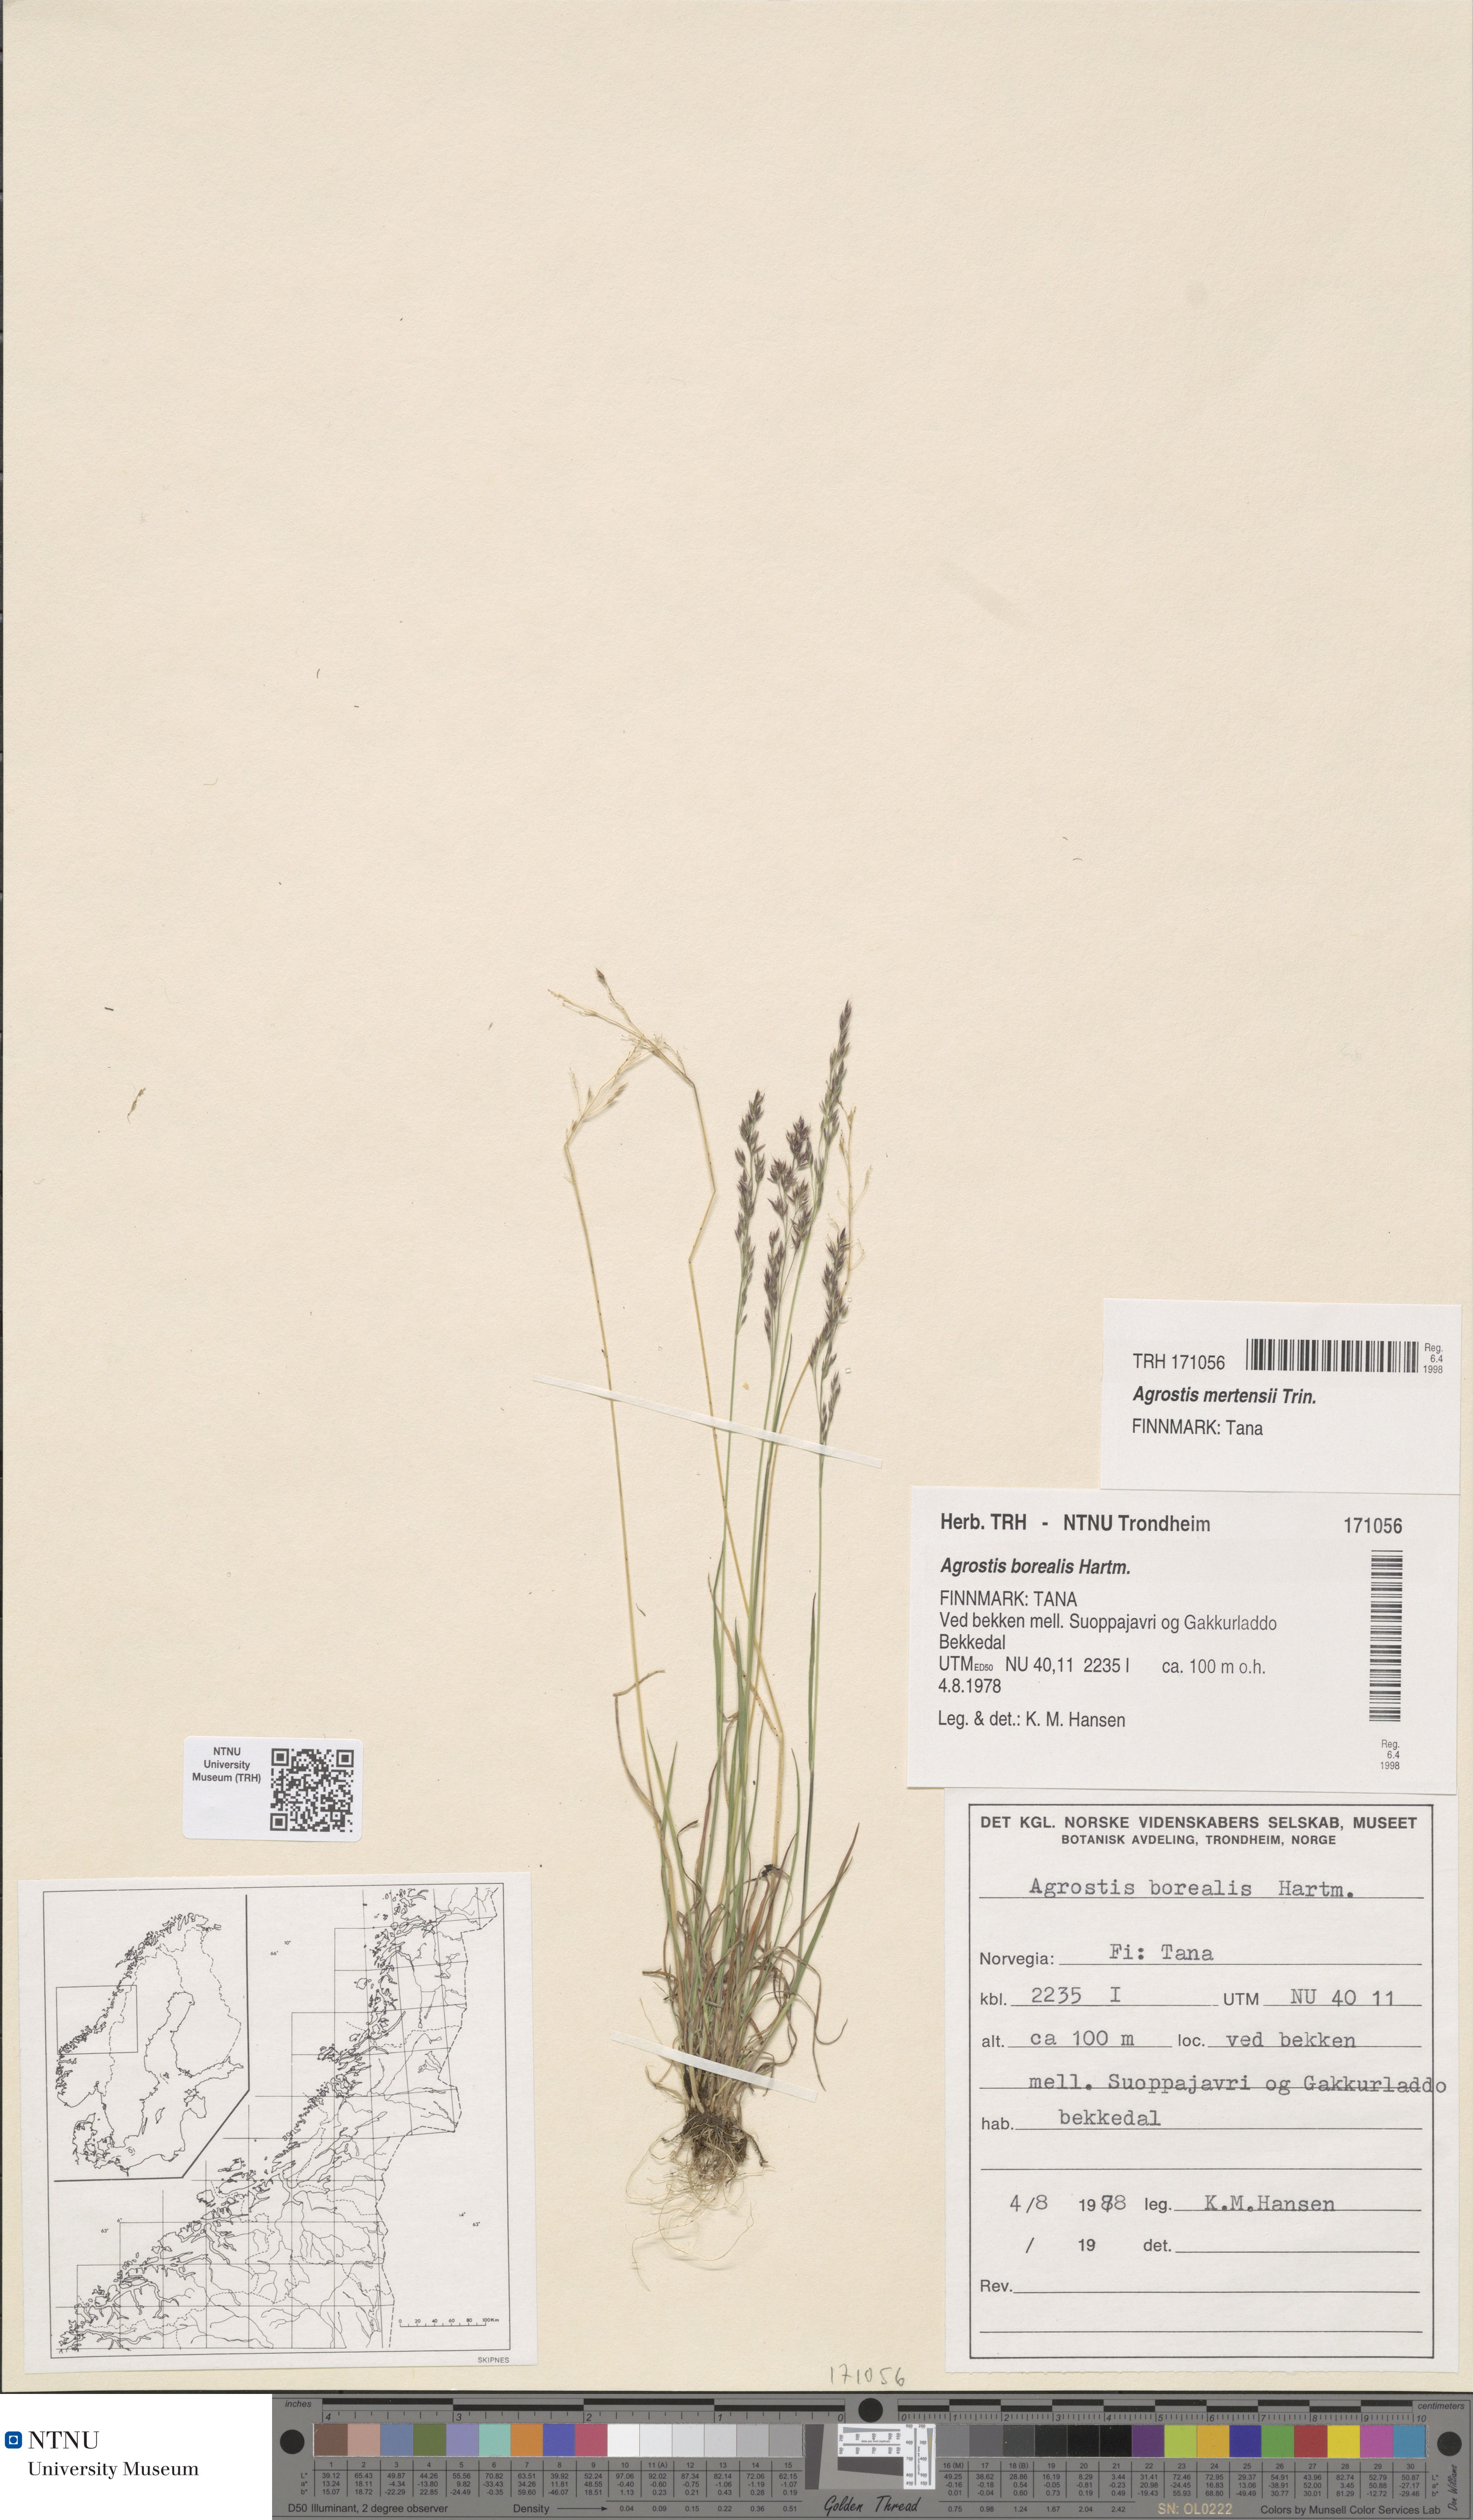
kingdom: Plantae
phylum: Tracheophyta
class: Liliopsida
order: Poales
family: Poaceae
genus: Agrostis
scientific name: Agrostis mertensii
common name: Northern bent
